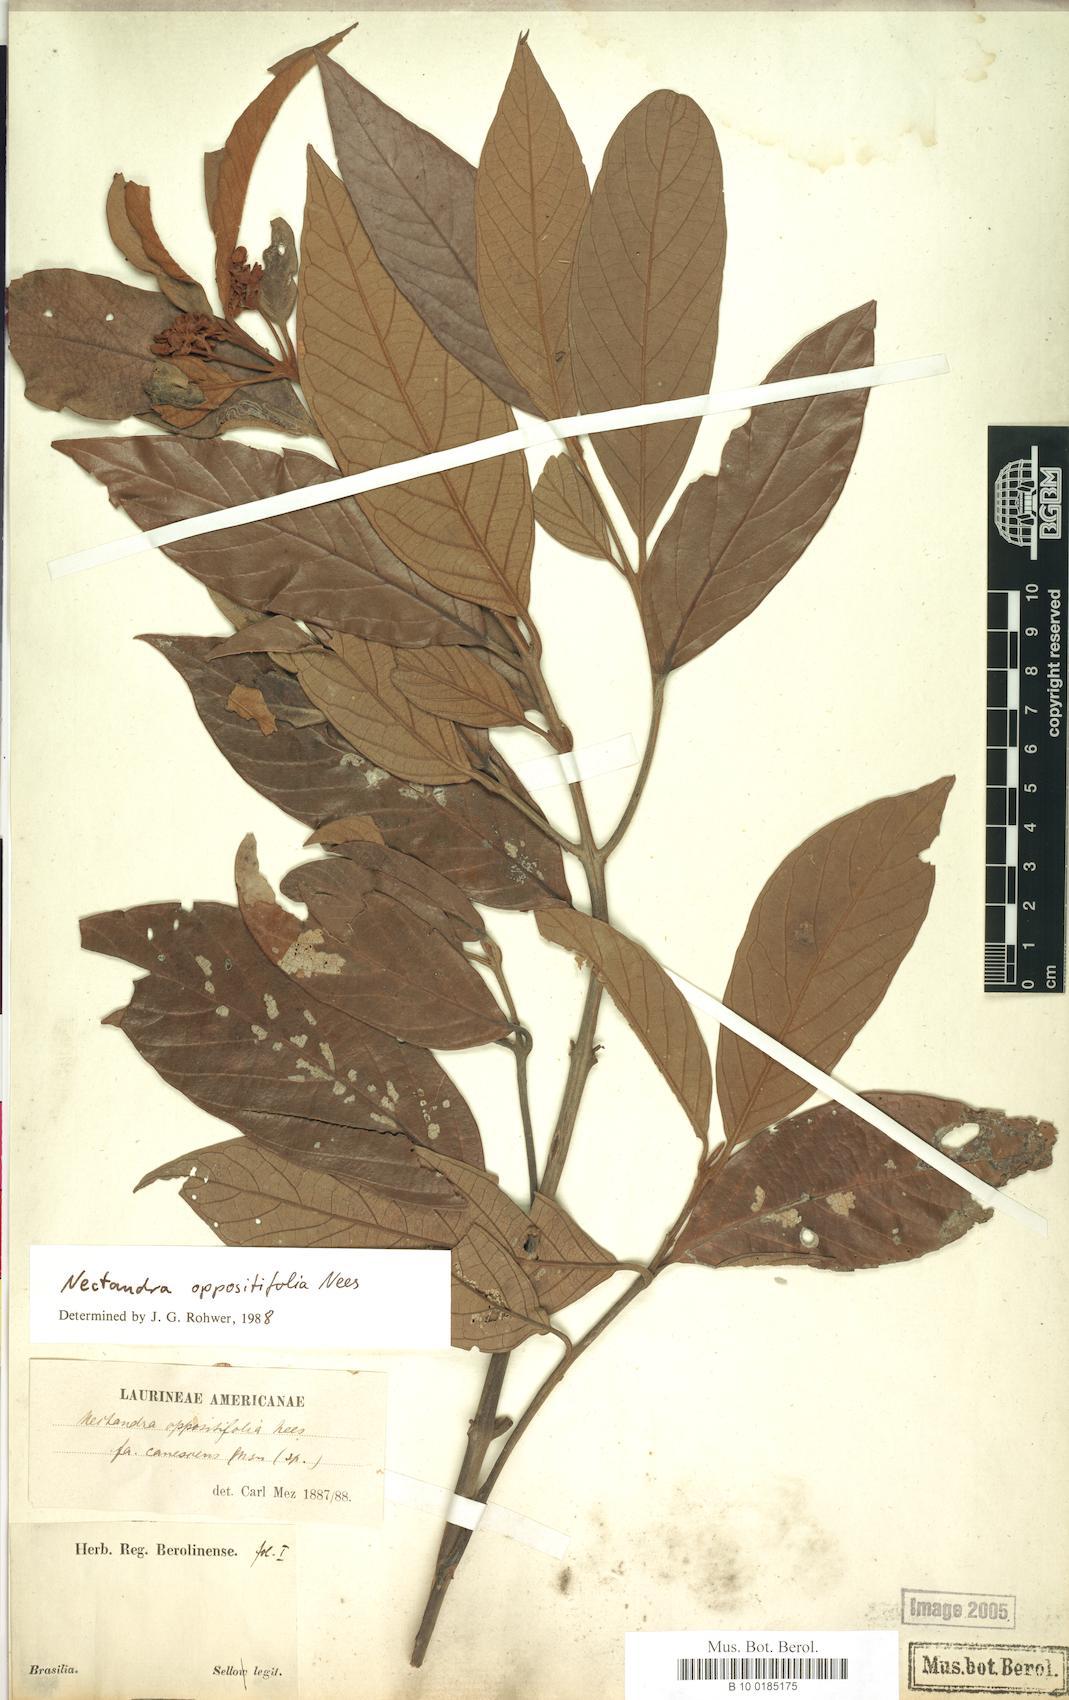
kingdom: Plantae
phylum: Tracheophyta
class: Magnoliopsida
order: Laurales
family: Lauraceae
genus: Nectandra
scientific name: Nectandra oppositifolia
